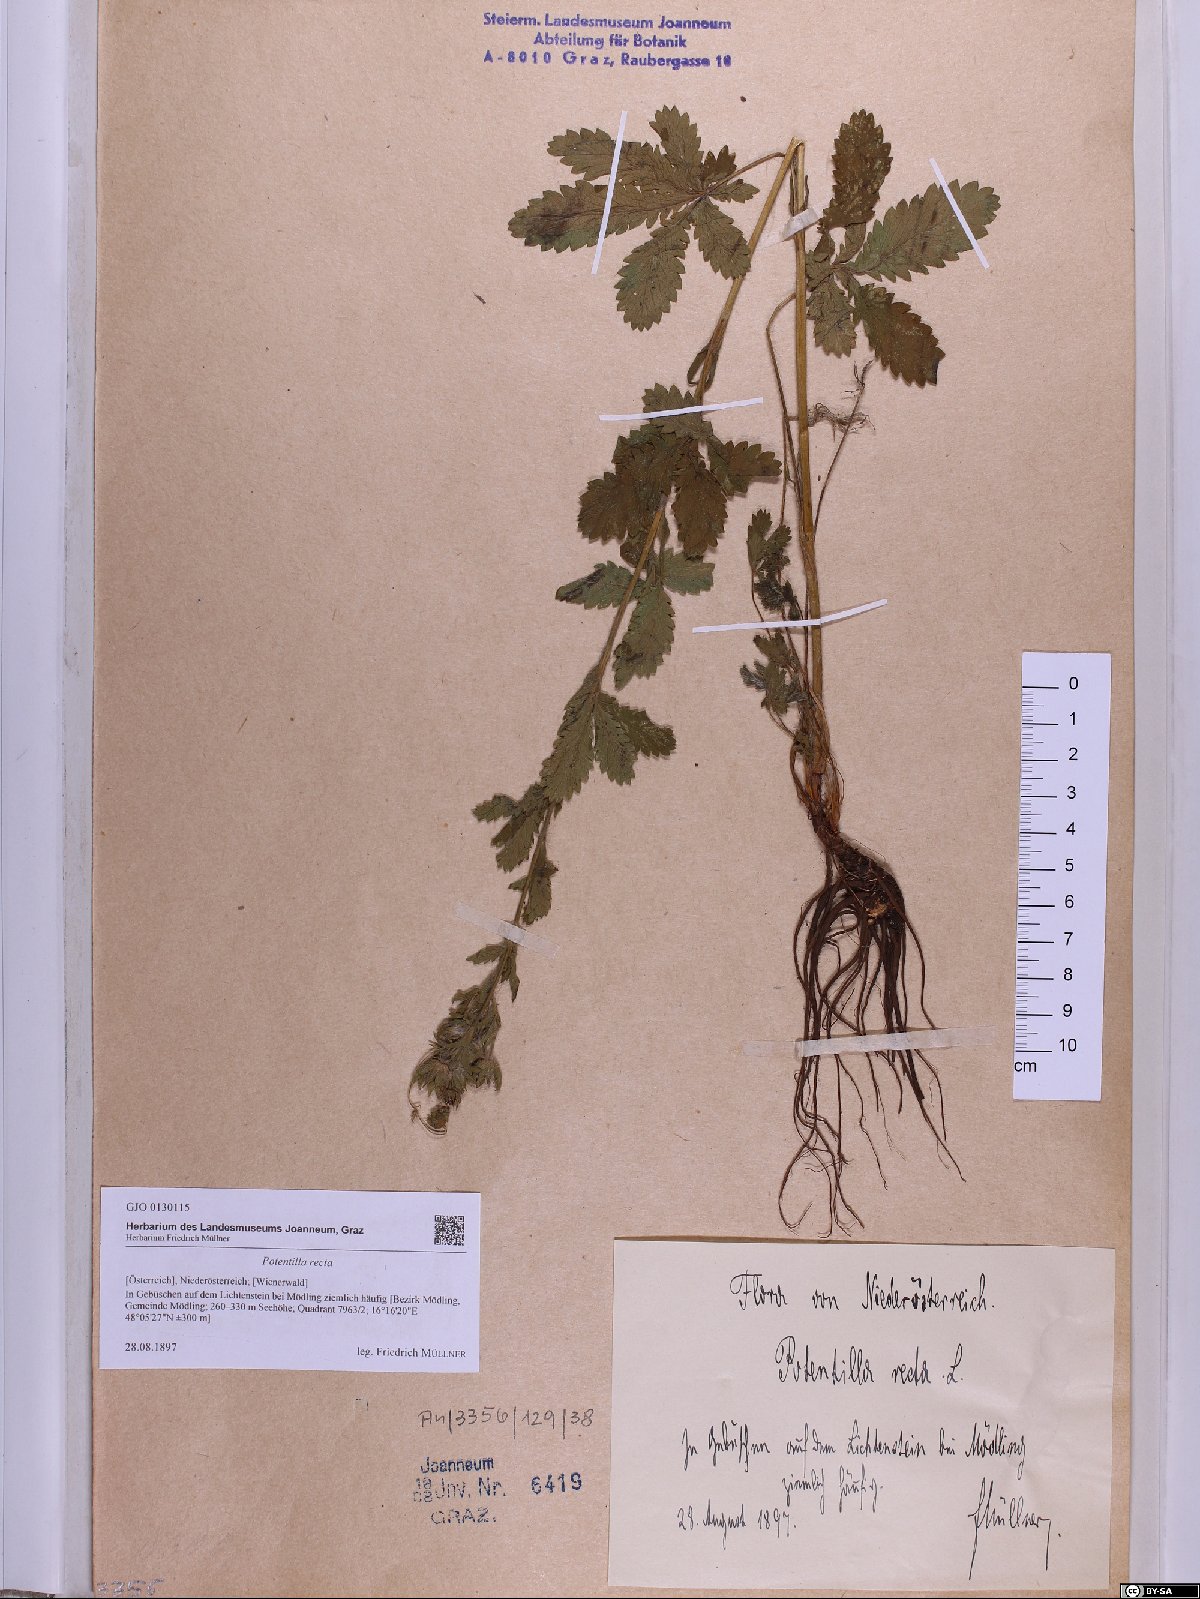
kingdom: Plantae
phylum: Tracheophyta
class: Magnoliopsida
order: Rosales
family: Rosaceae
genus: Potentilla
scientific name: Potentilla recta
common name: Sulphur cinquefoil
